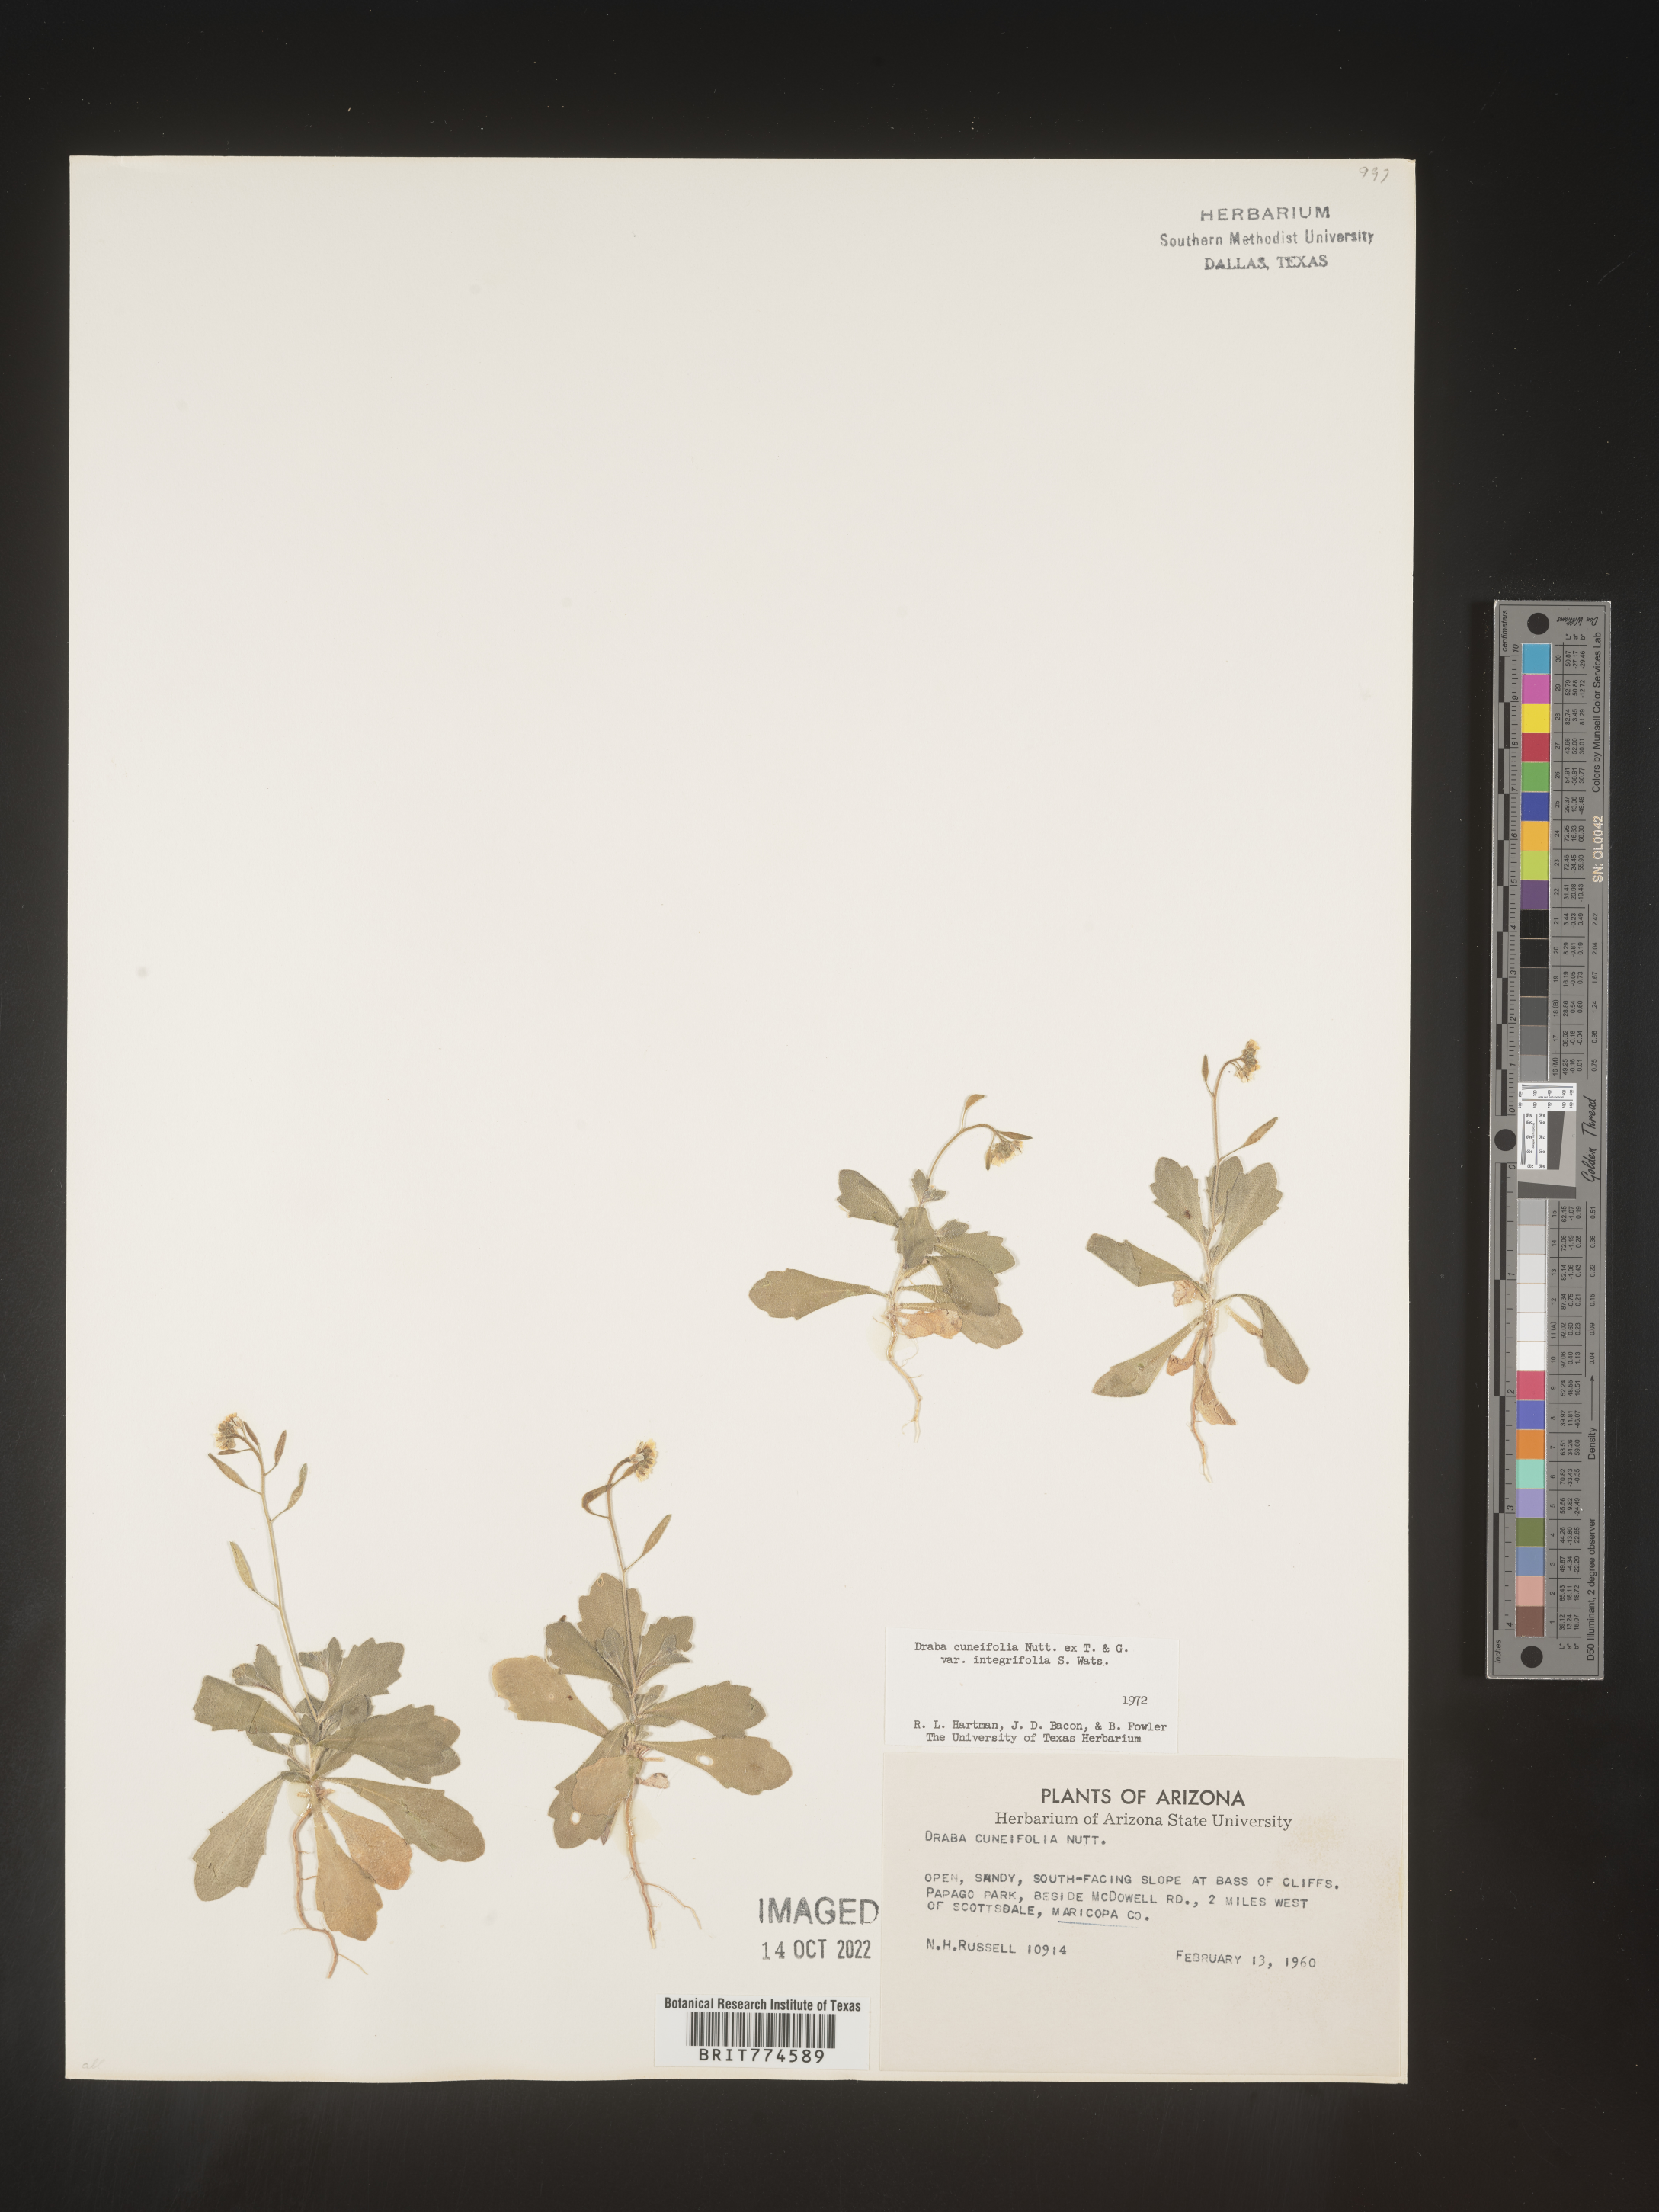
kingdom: Plantae
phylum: Tracheophyta
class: Magnoliopsida
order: Brassicales
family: Brassicaceae
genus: Tomostima
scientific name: Tomostima cuneifolia
